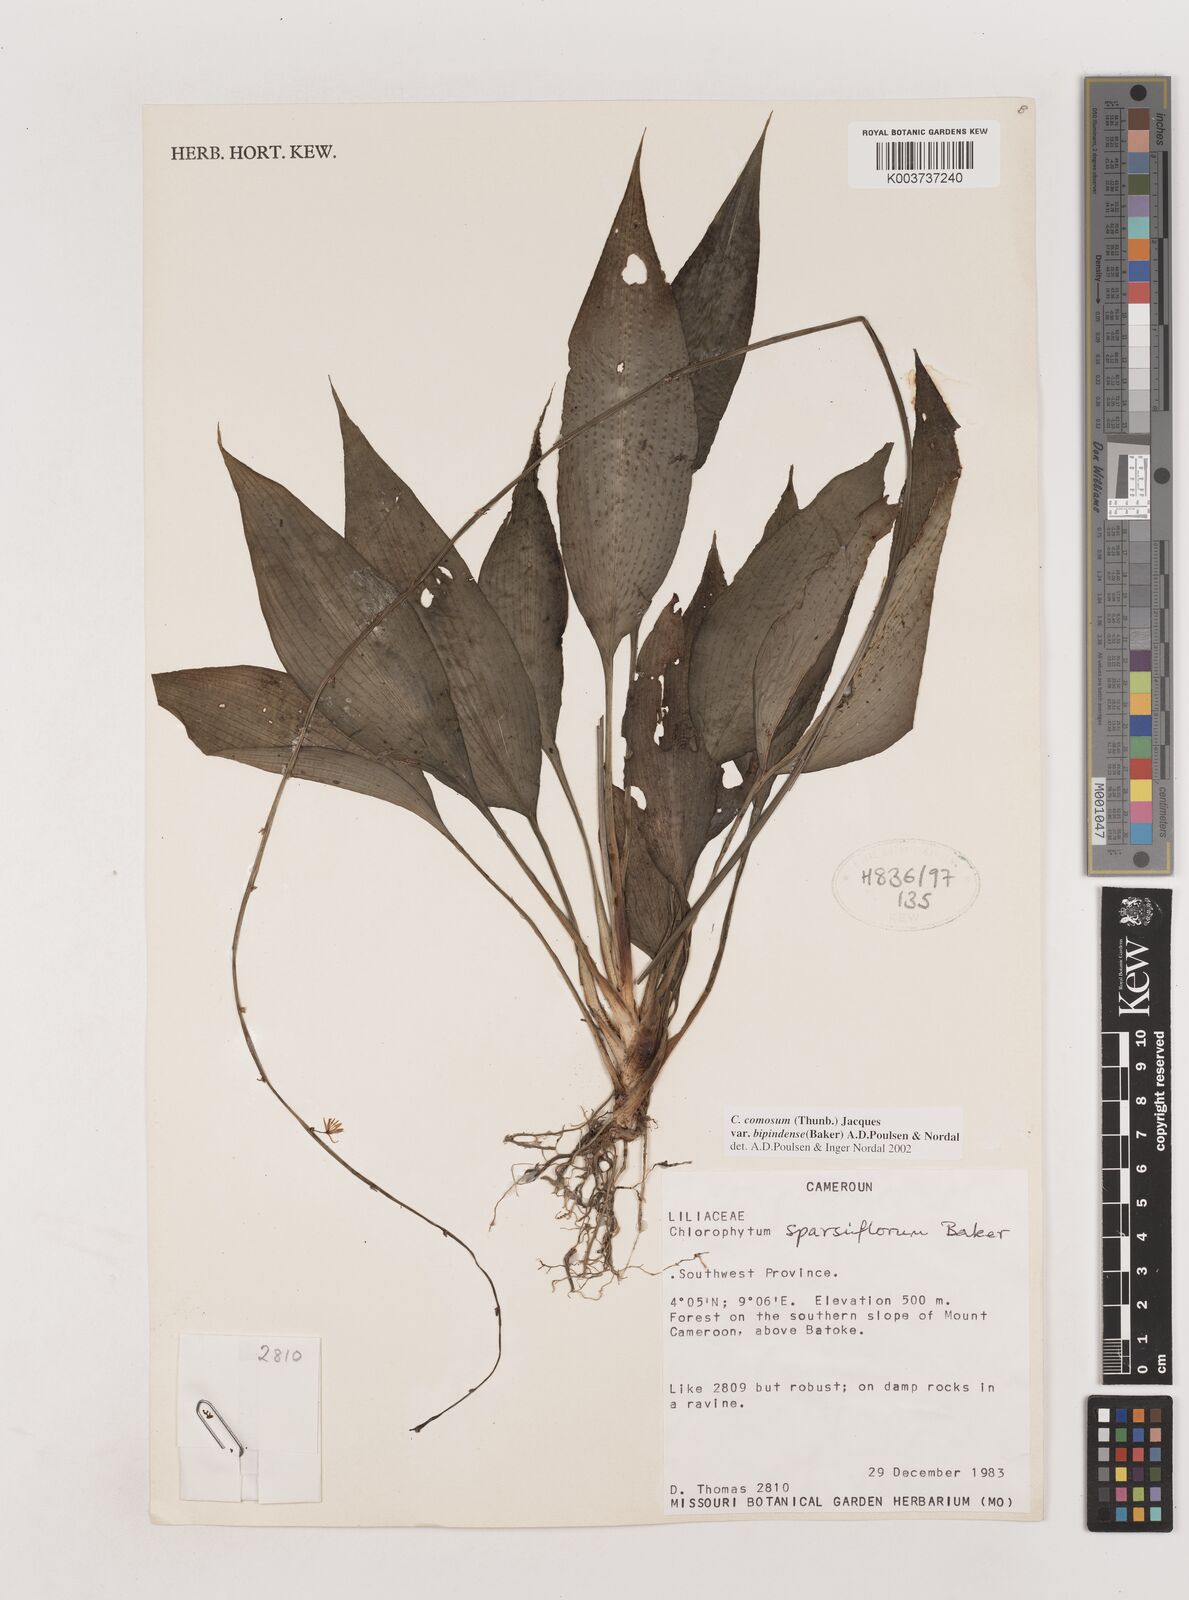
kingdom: Plantae
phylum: Tracheophyta
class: Liliopsida
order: Asparagales
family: Asparagaceae
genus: Chlorophytum
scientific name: Chlorophytum sparsiflorum
